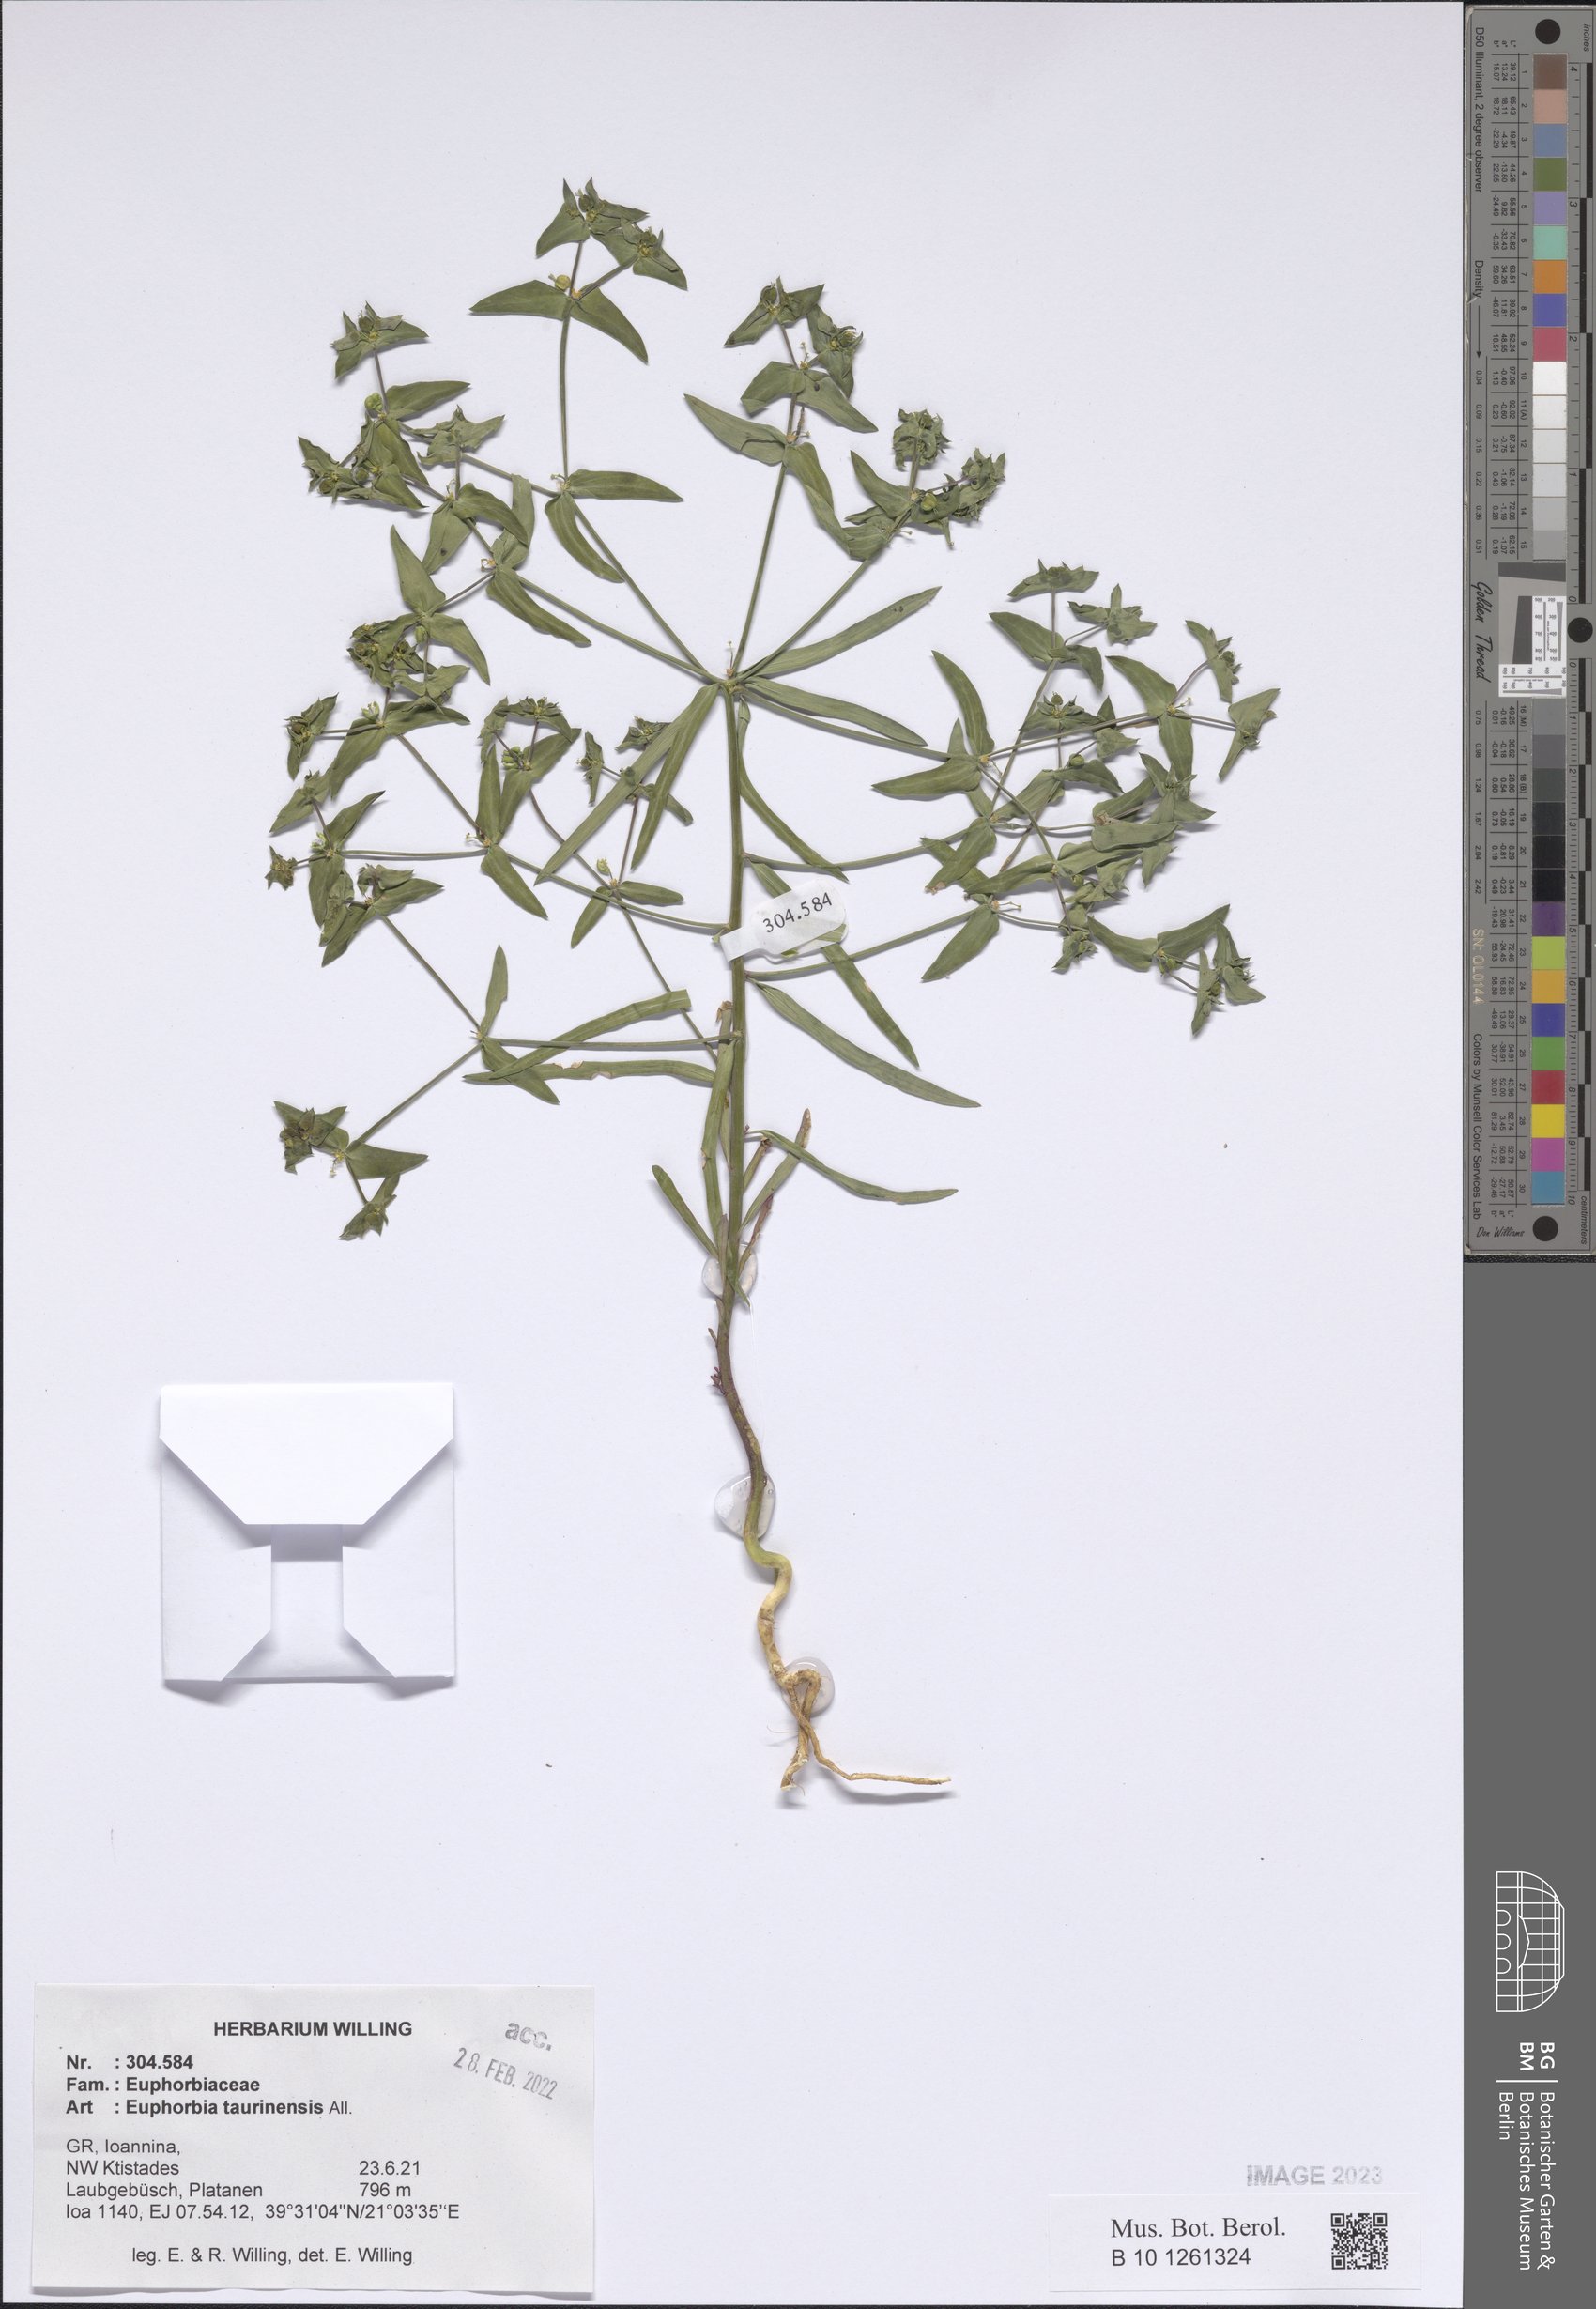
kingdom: Plantae
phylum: Tracheophyta
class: Magnoliopsida
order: Malpighiales
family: Euphorbiaceae
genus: Euphorbia
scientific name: Euphorbia taurinensis
